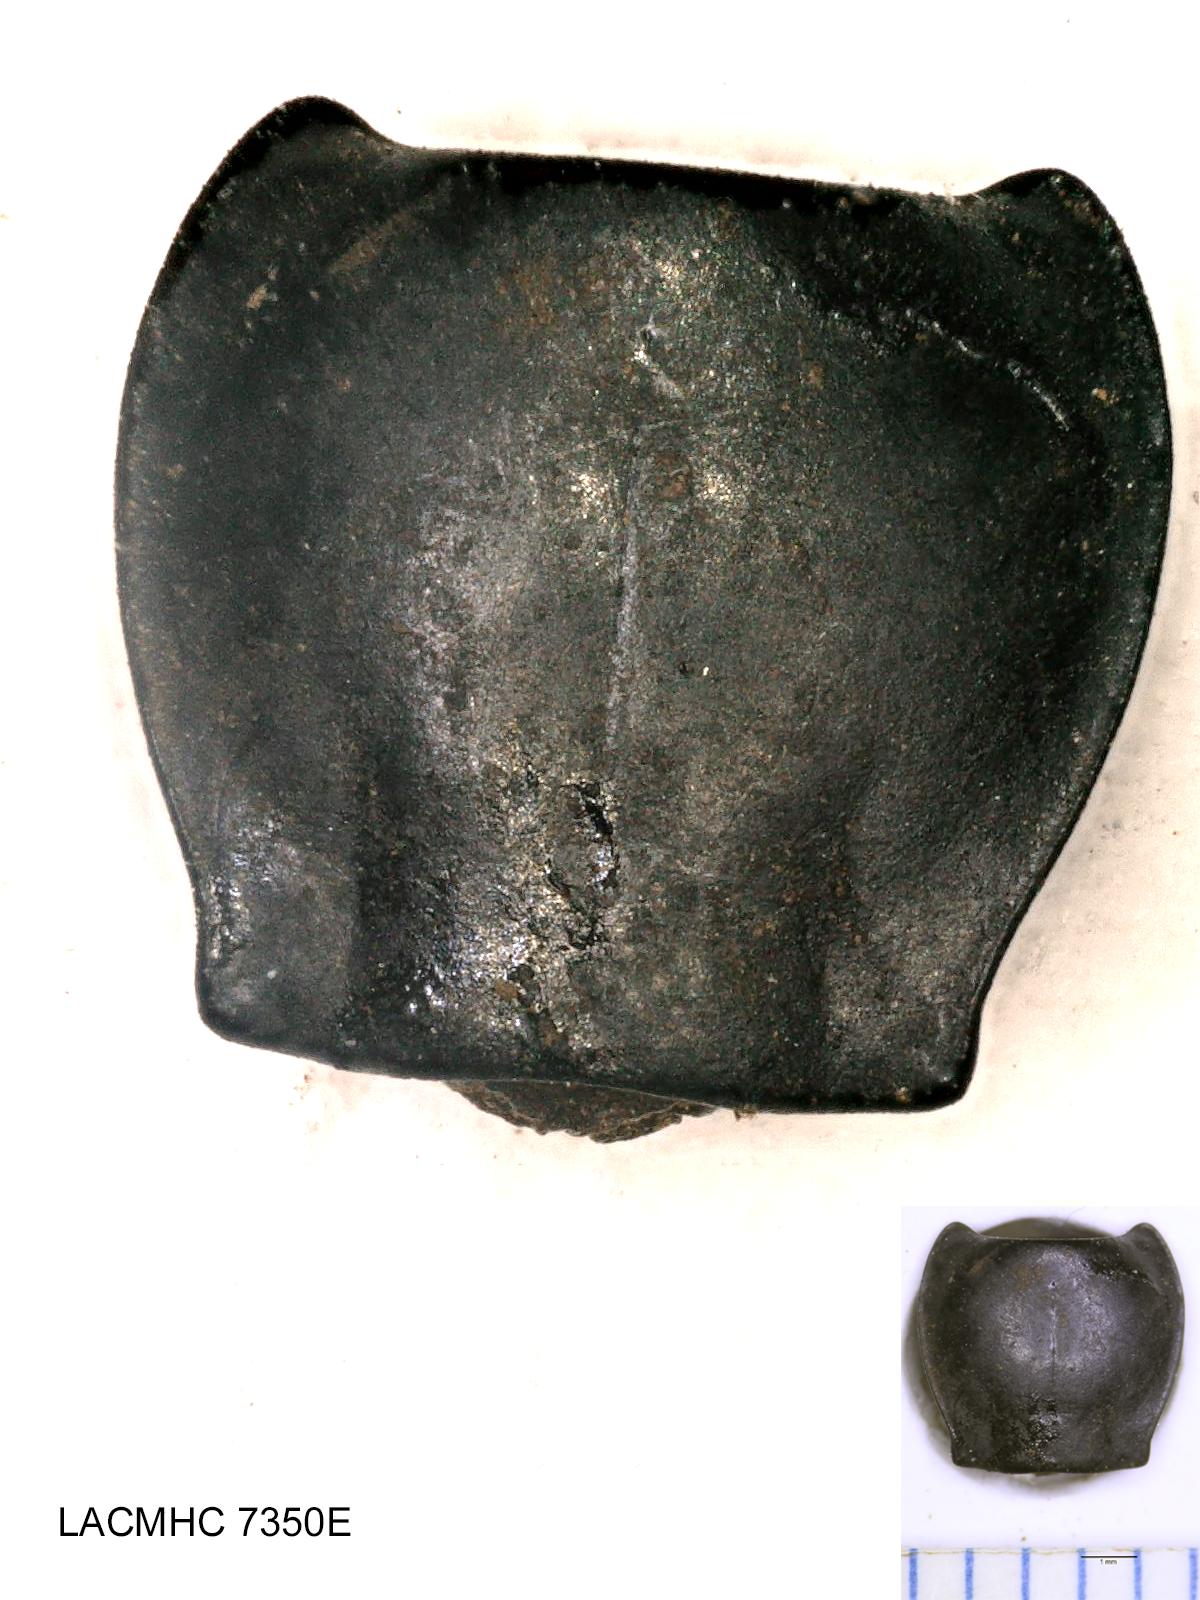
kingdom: Animalia
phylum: Arthropoda
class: Insecta
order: Coleoptera
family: Carabidae
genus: Pterostichus
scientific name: Pterostichus illustris
